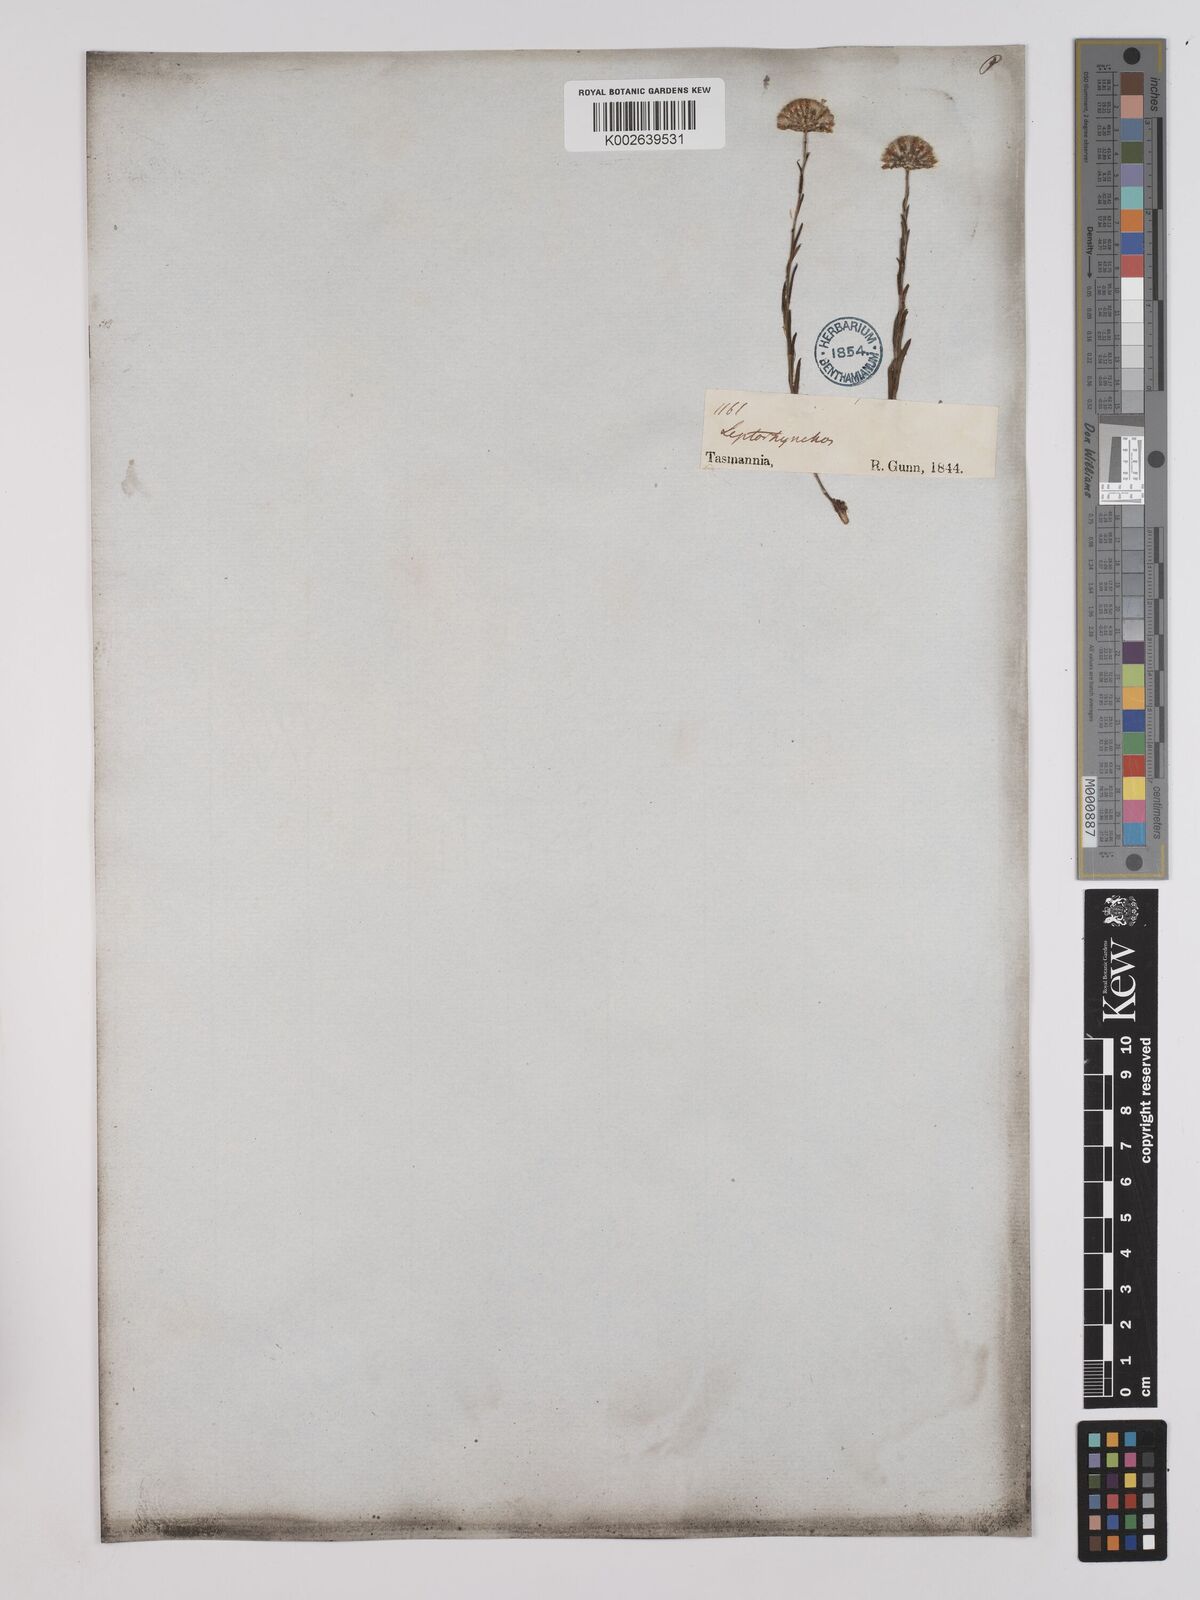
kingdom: Plantae
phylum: Tracheophyta
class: Magnoliopsida
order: Asterales
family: Asteraceae
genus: Leptorhynchos
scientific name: Leptorhynchos nitidulus
